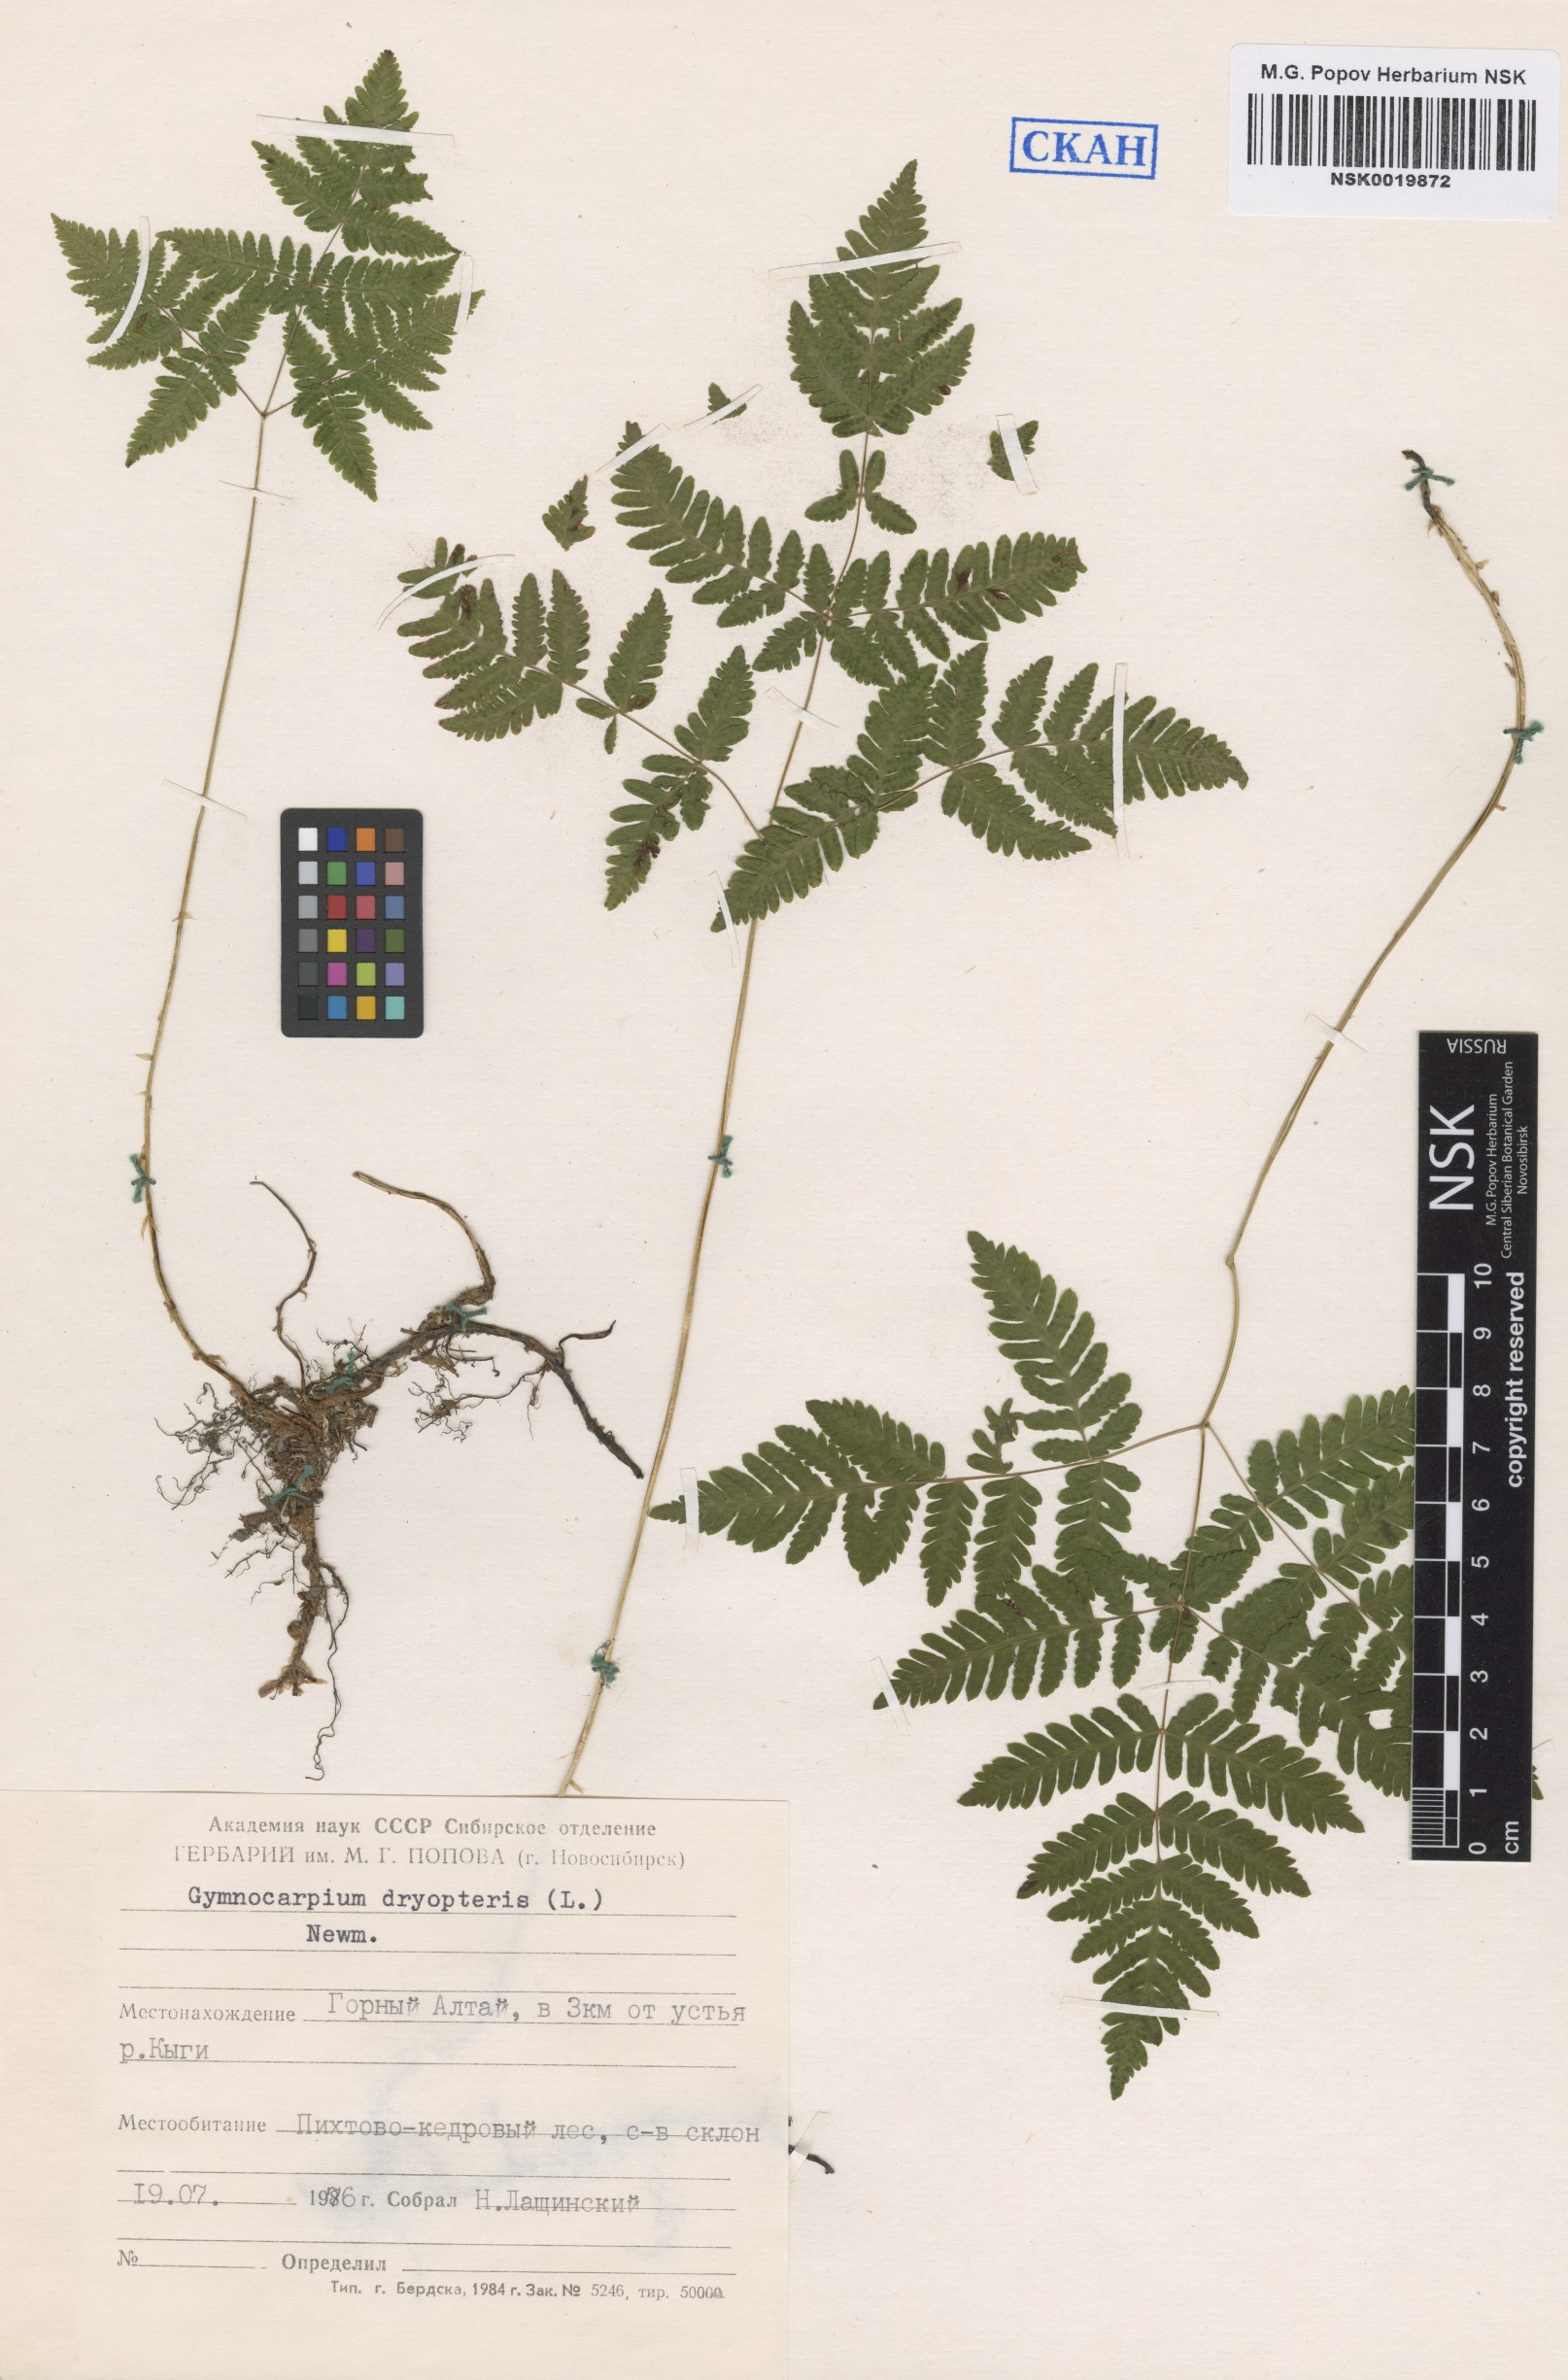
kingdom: Plantae
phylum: Tracheophyta
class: Polypodiopsida
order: Polypodiales
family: Cystopteridaceae
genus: Gymnocarpium
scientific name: Gymnocarpium dryopteris
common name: Oak fern
